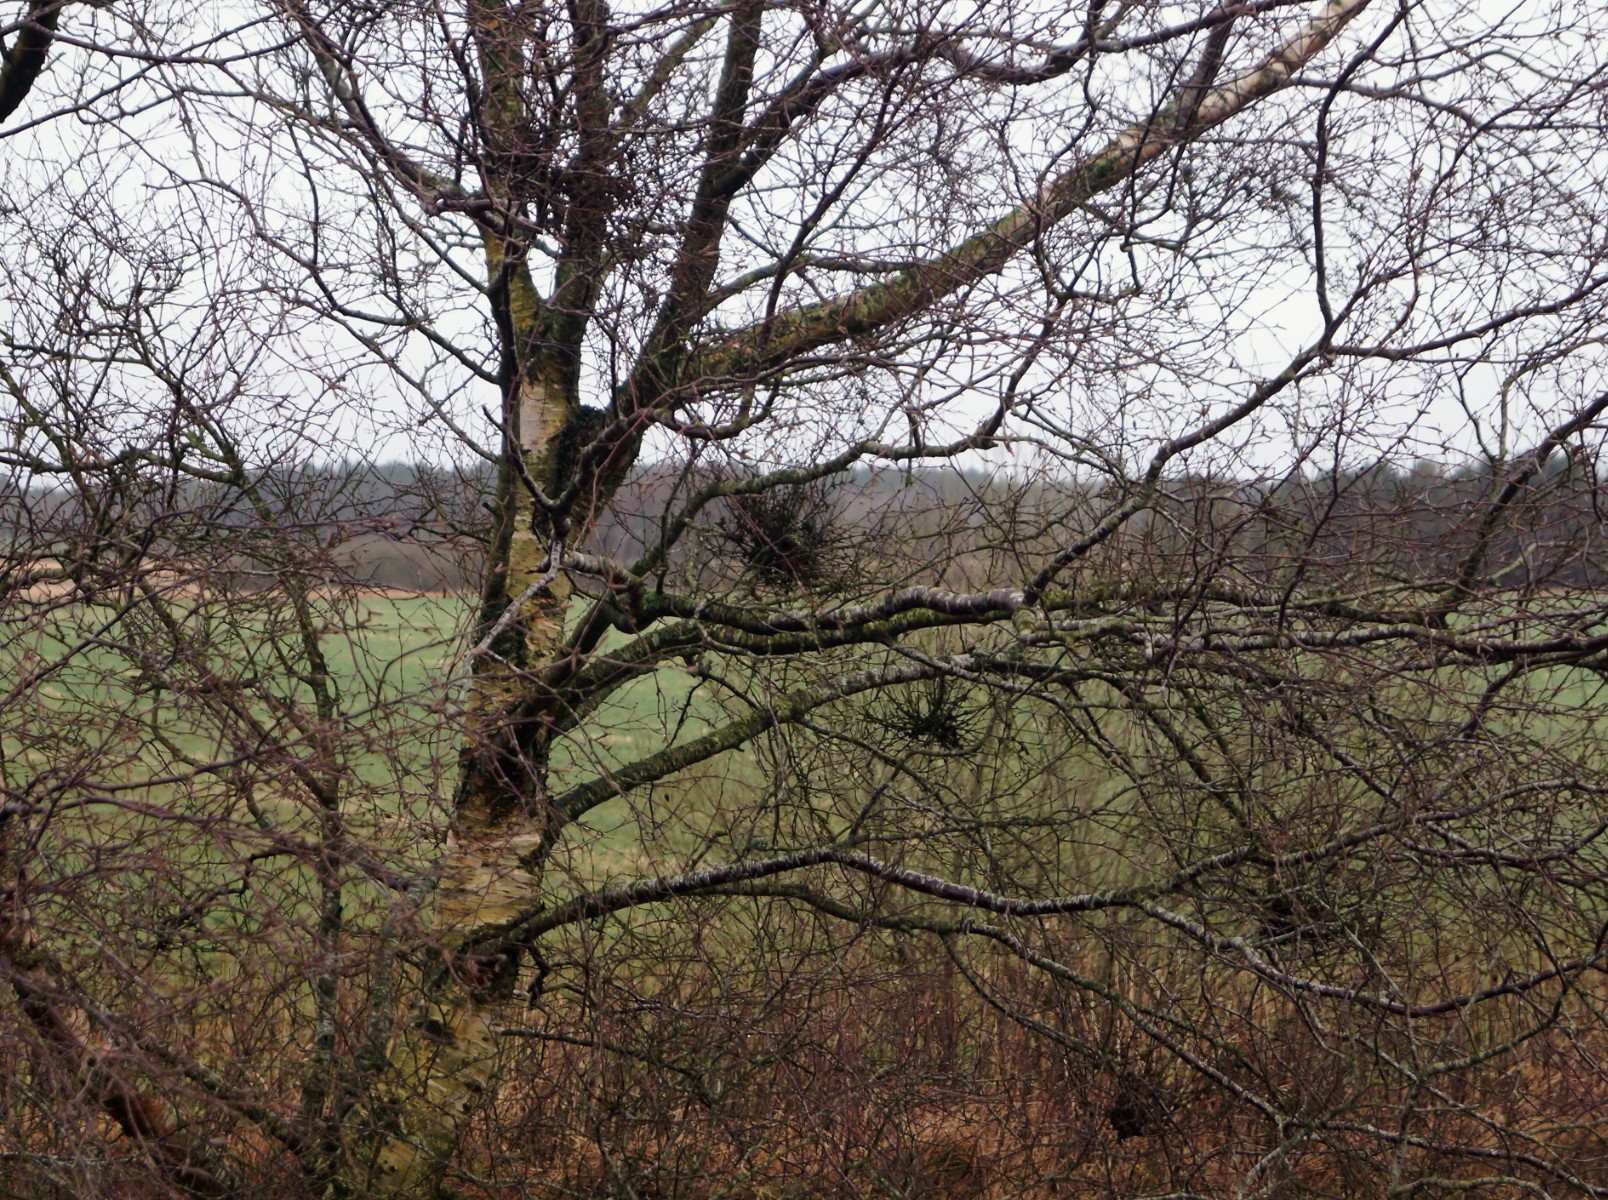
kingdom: Fungi
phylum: Ascomycota
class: Taphrinomycetes
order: Taphrinales
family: Taphrinaceae
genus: Taphrina
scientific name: Taphrina betulina
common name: hekse-sækdug
